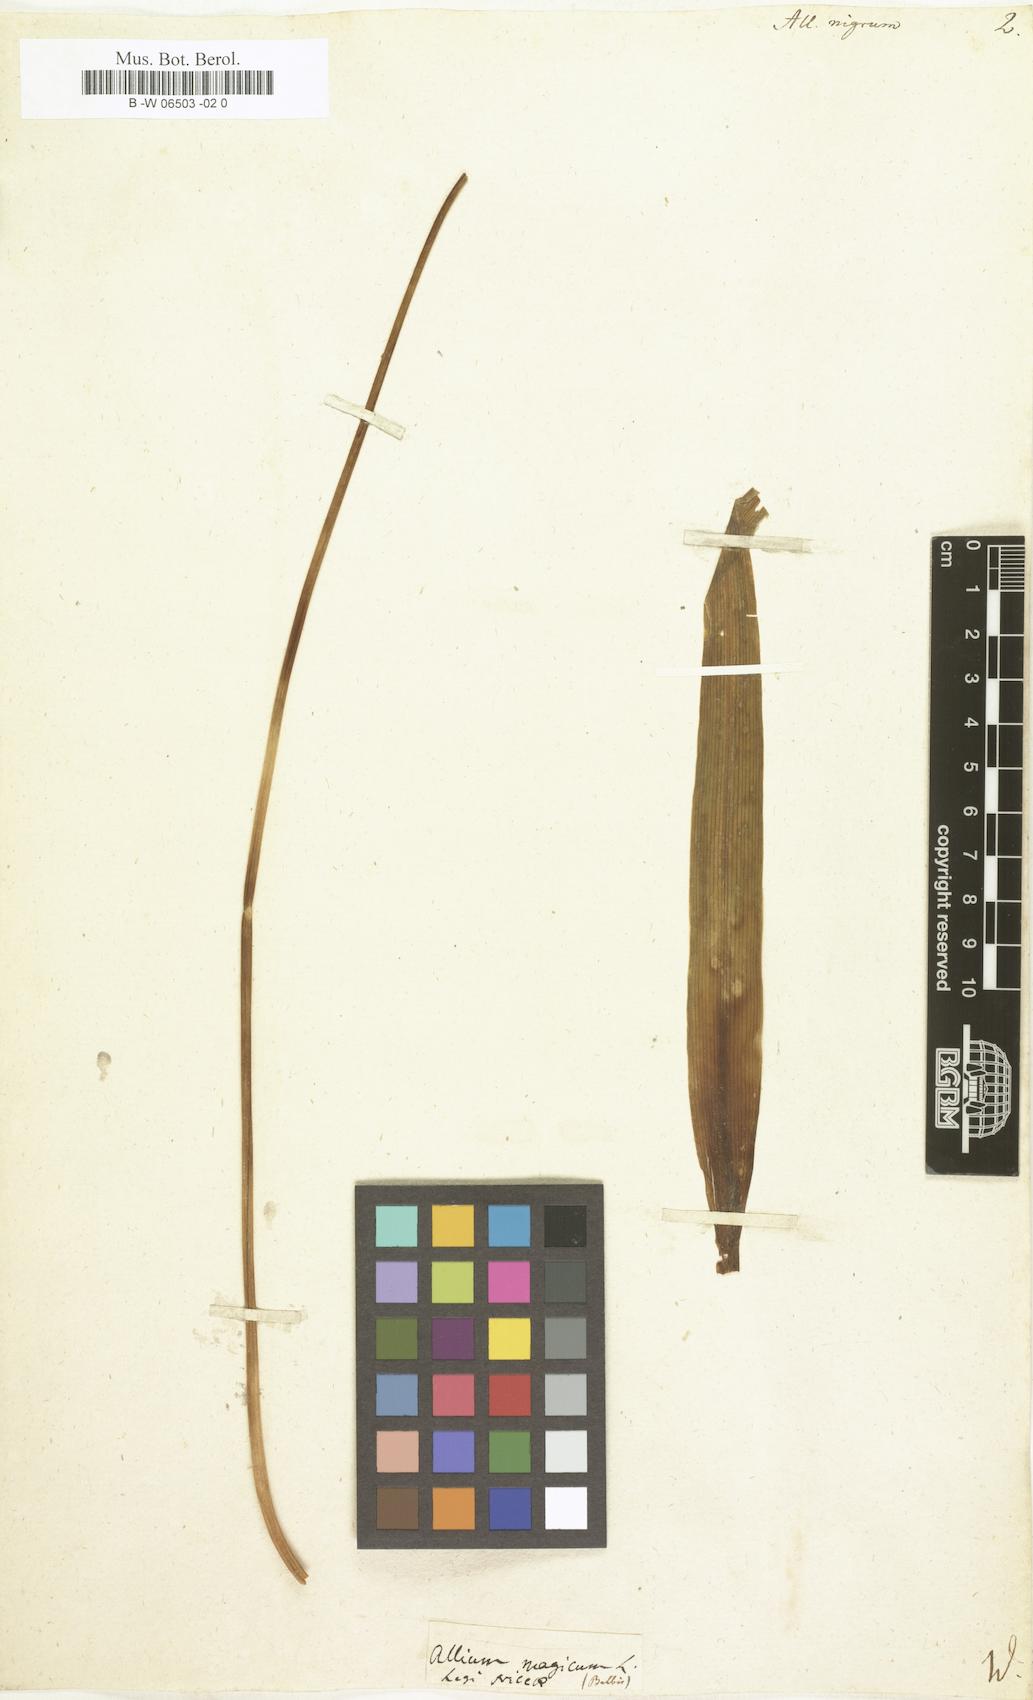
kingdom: Plantae
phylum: Tracheophyta
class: Liliopsida
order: Asparagales
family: Amaryllidaceae
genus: Allium
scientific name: Allium nigrum
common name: Black garlic
